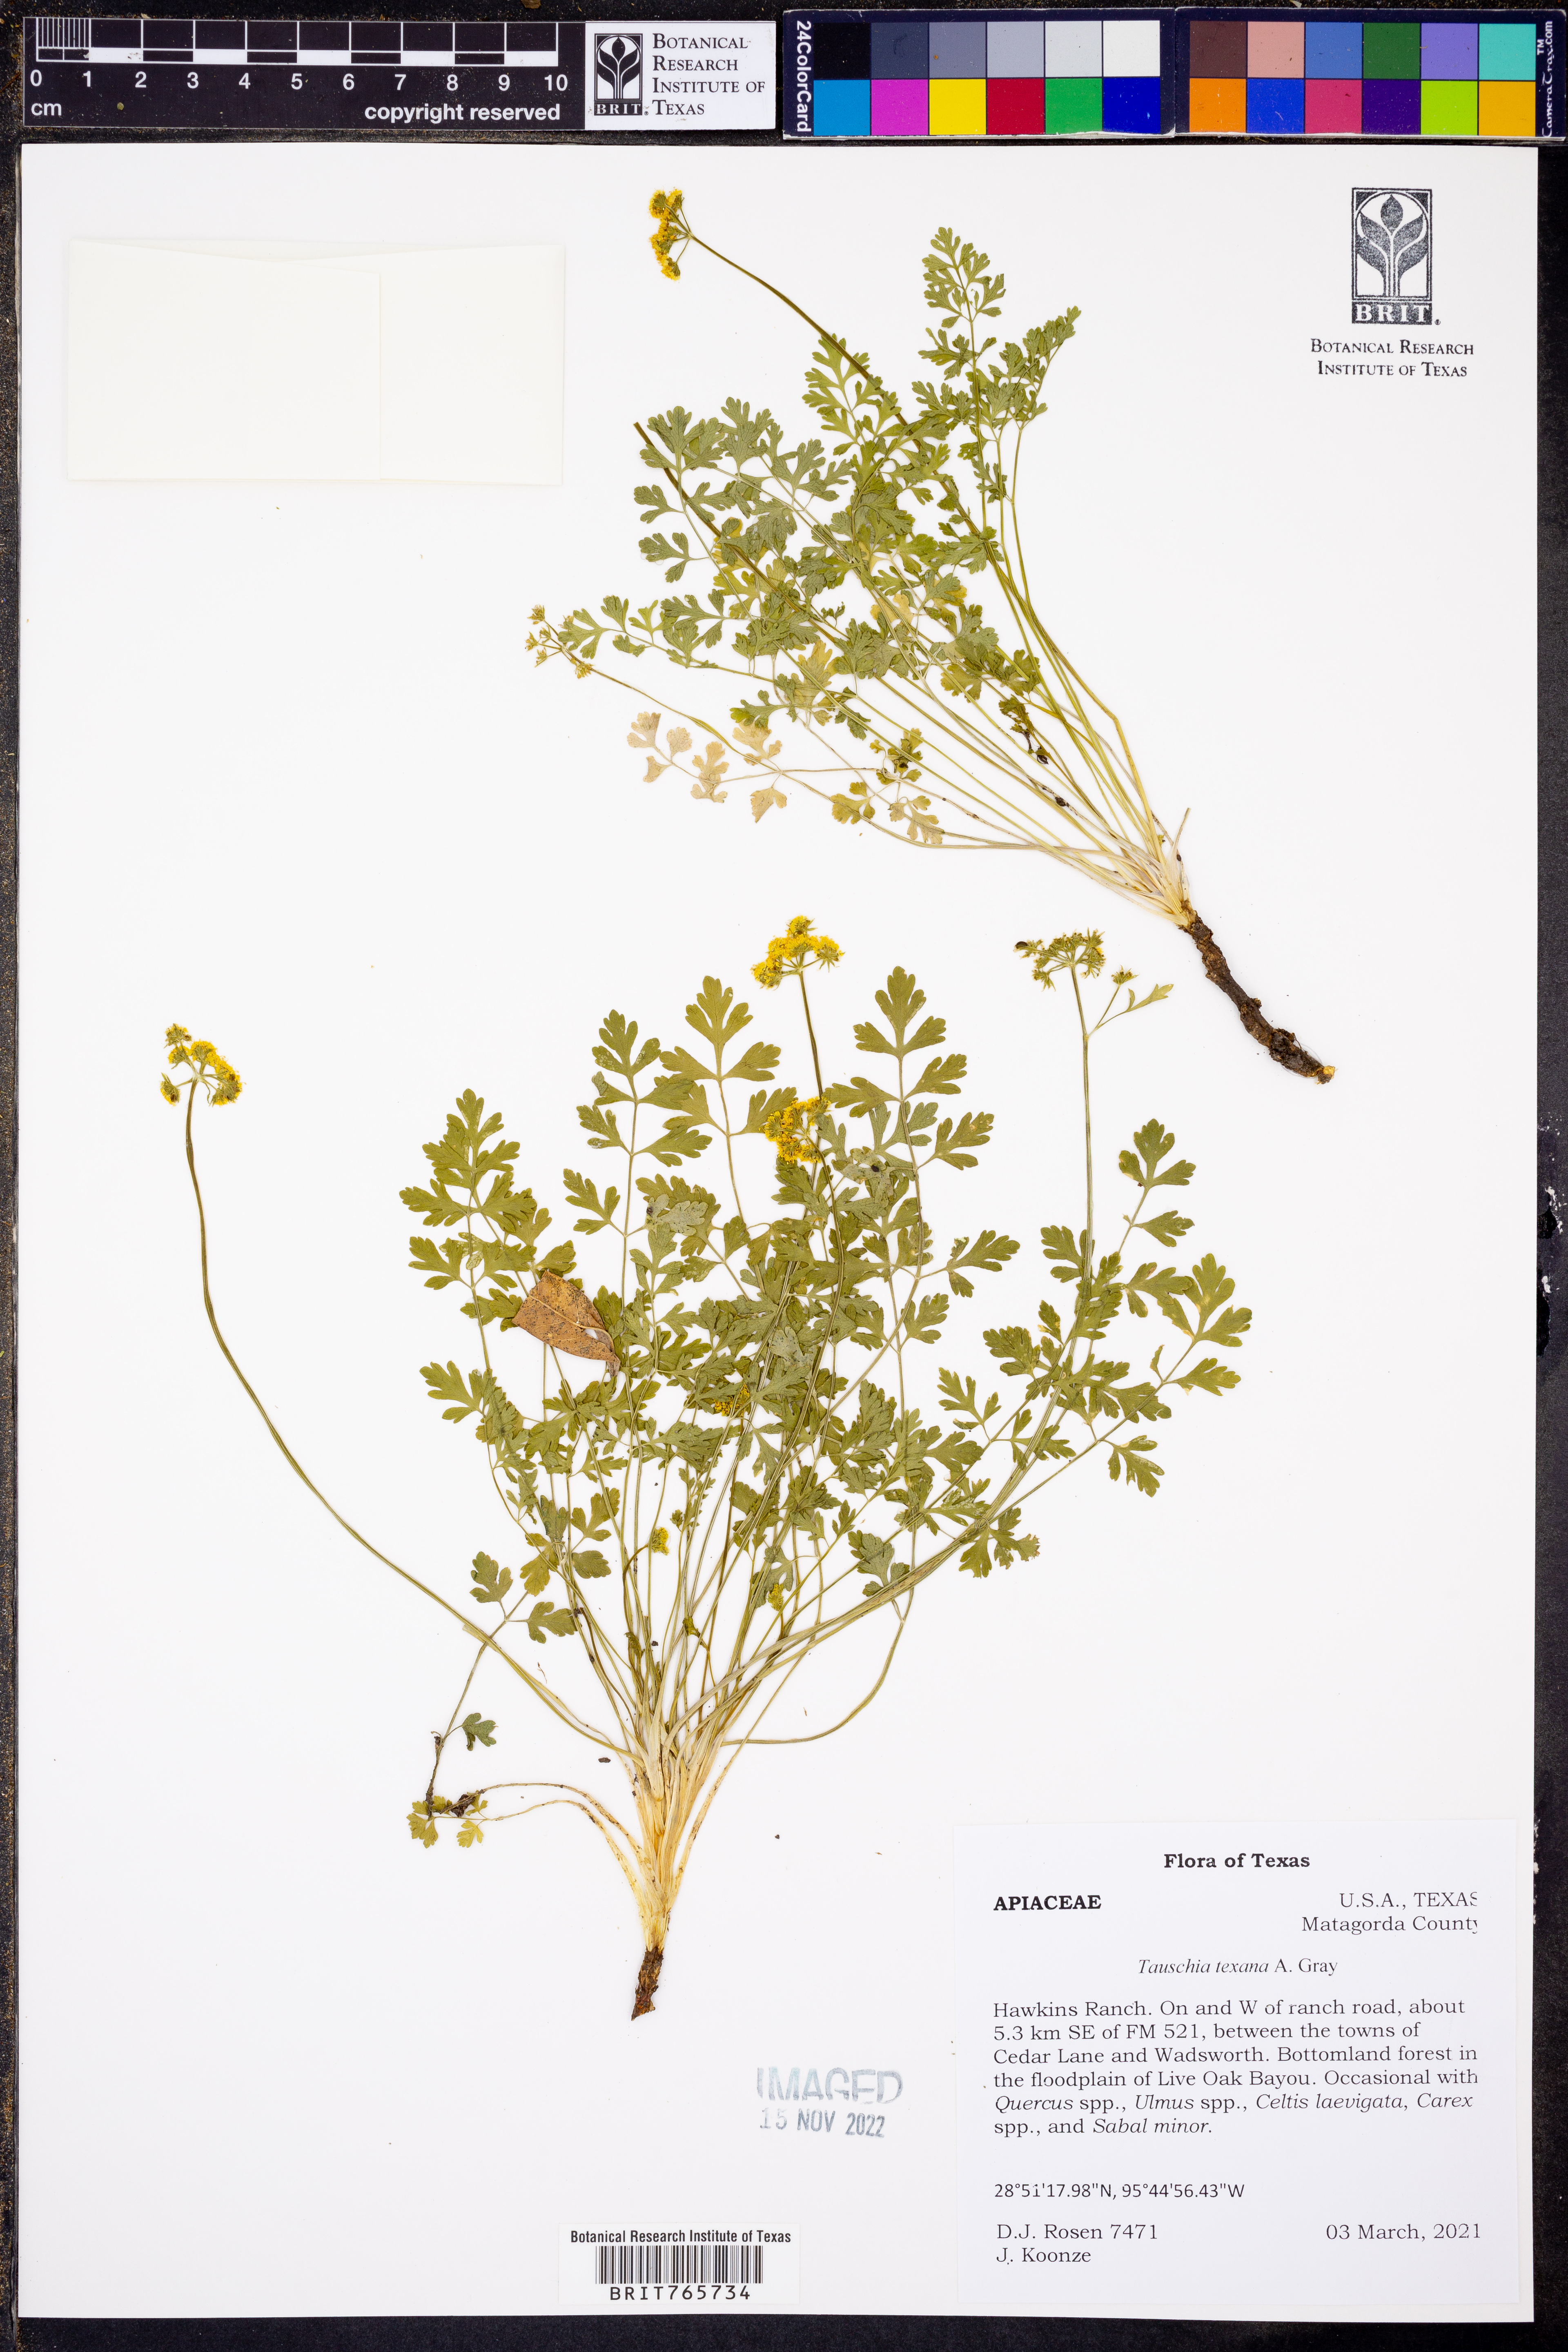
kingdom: Plantae
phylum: Tracheophyta
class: Magnoliopsida
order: Apiales
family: Apiaceae
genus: Tauschia
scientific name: Tauschia texana
